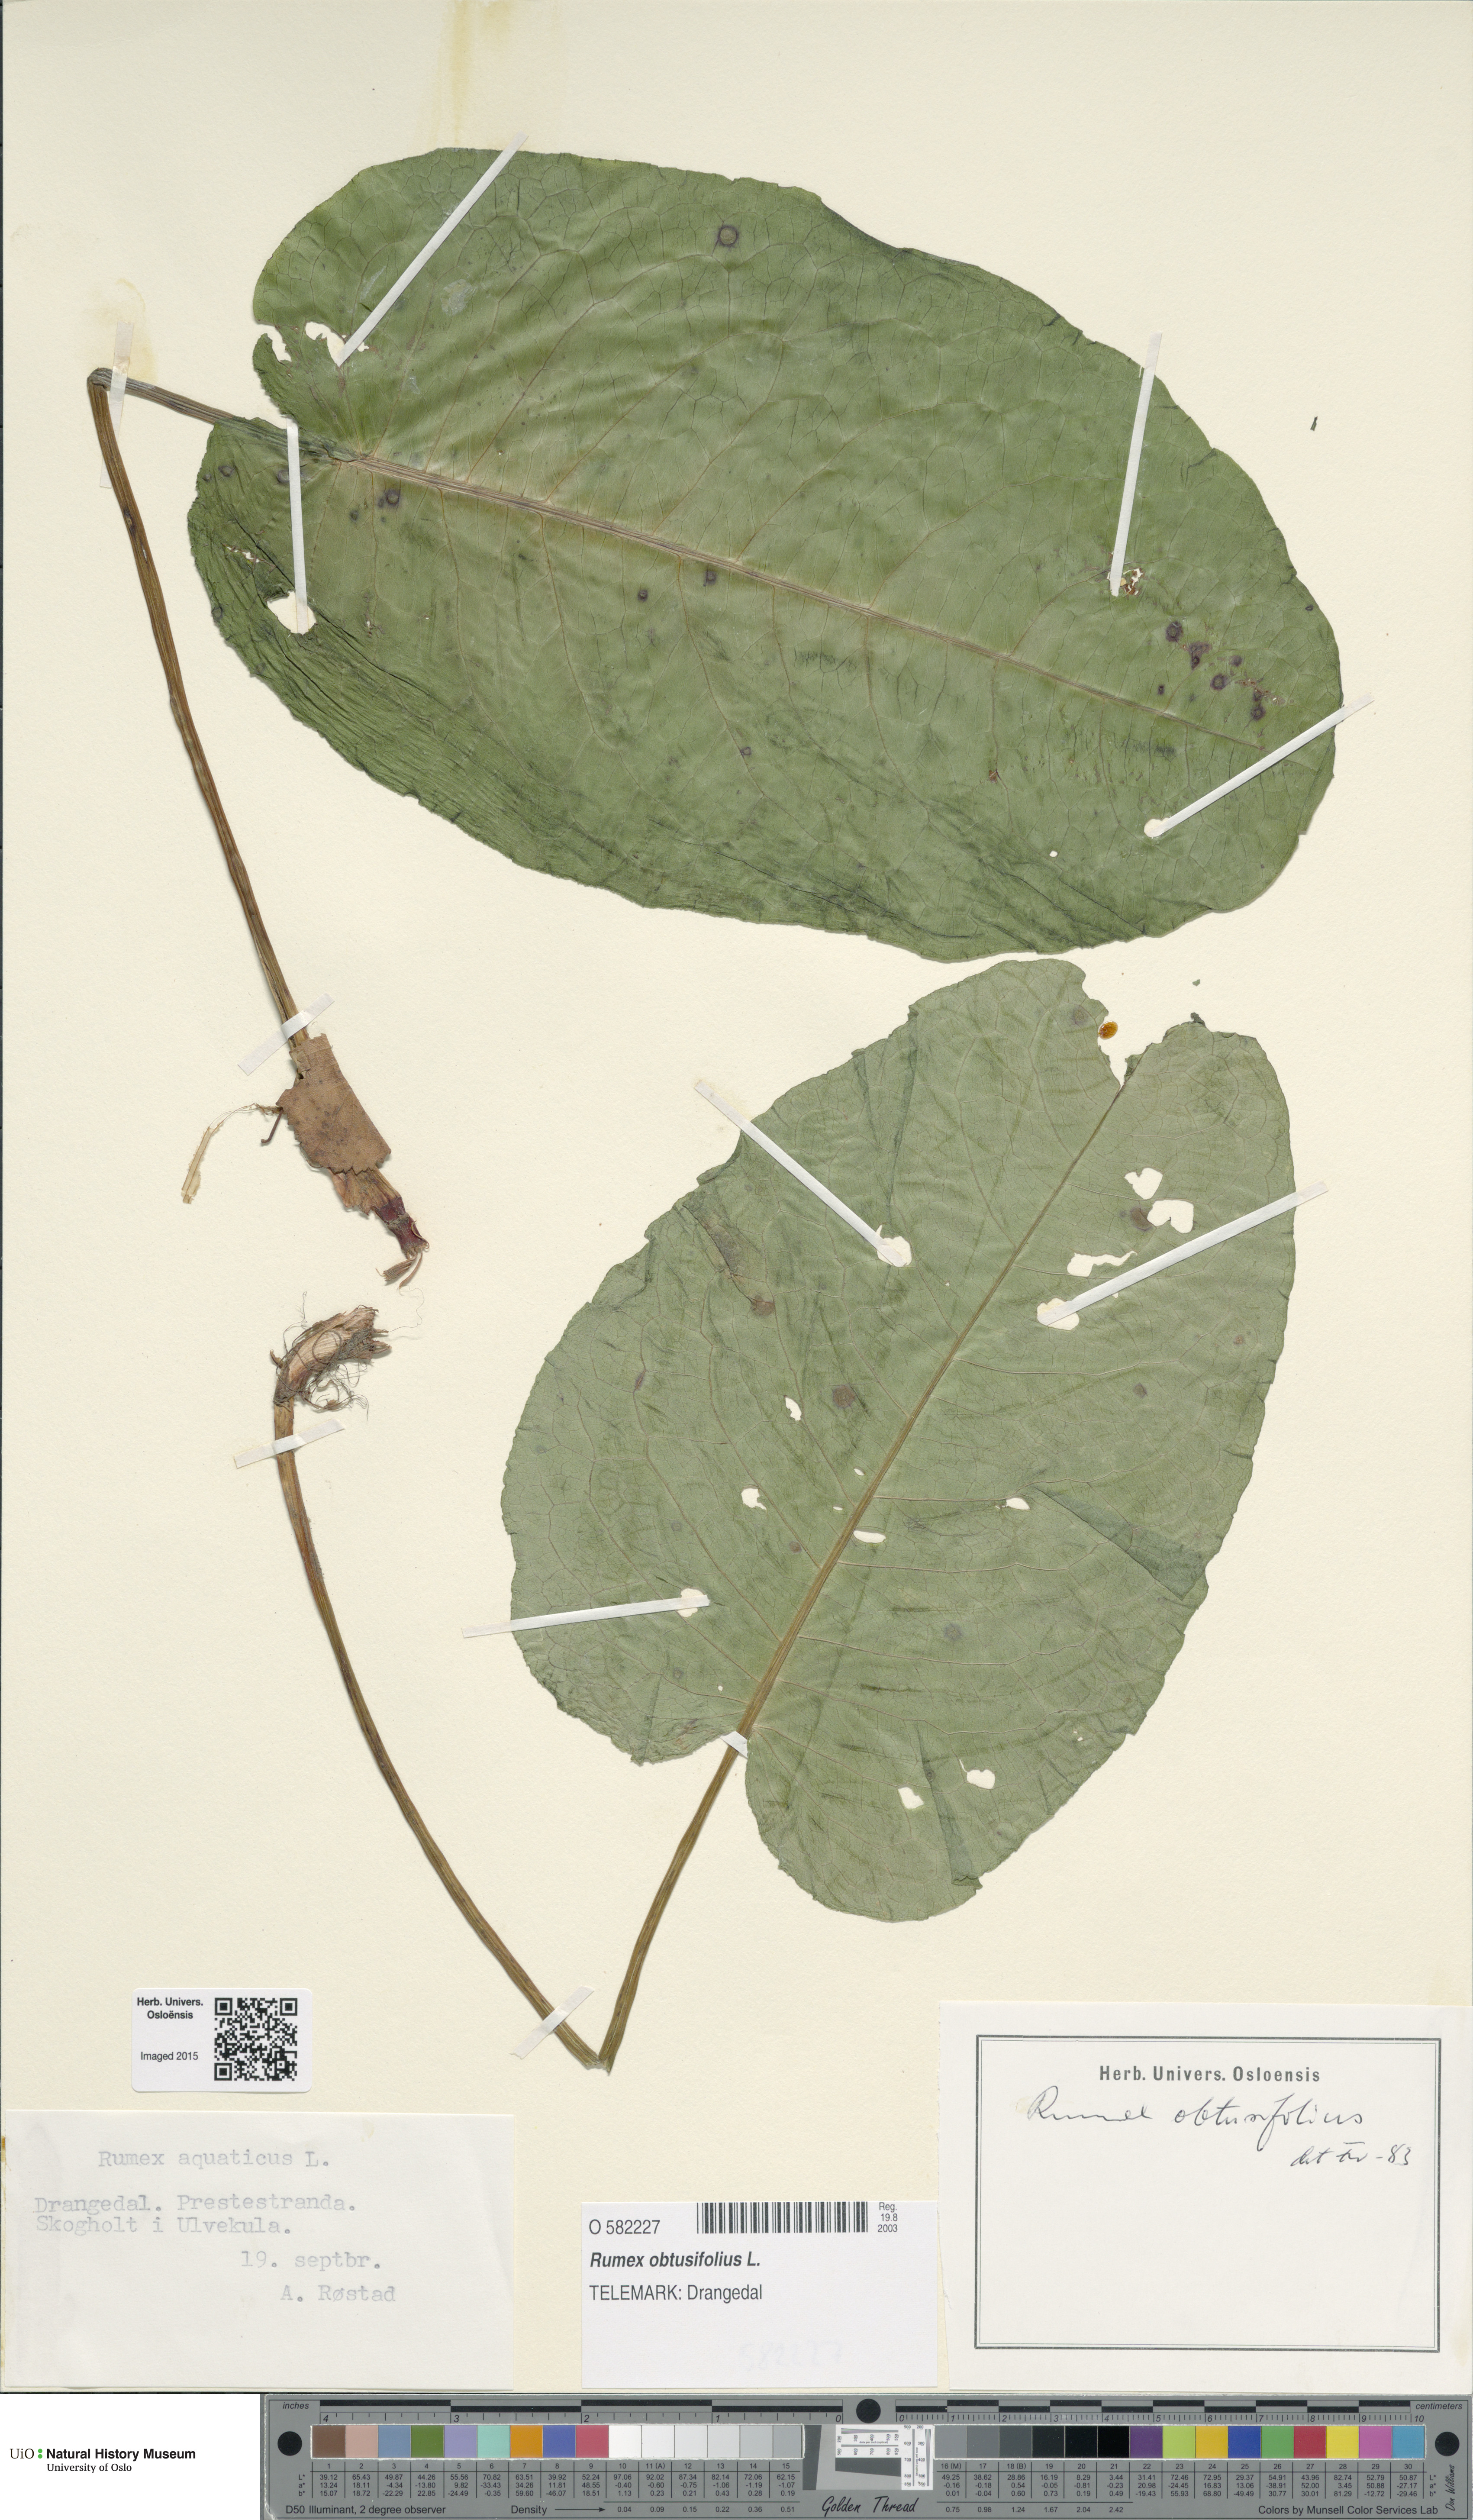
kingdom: Plantae
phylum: Tracheophyta
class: Magnoliopsida
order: Caryophyllales
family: Polygonaceae
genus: Rumex
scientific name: Rumex obtusifolius
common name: Bitter dock
